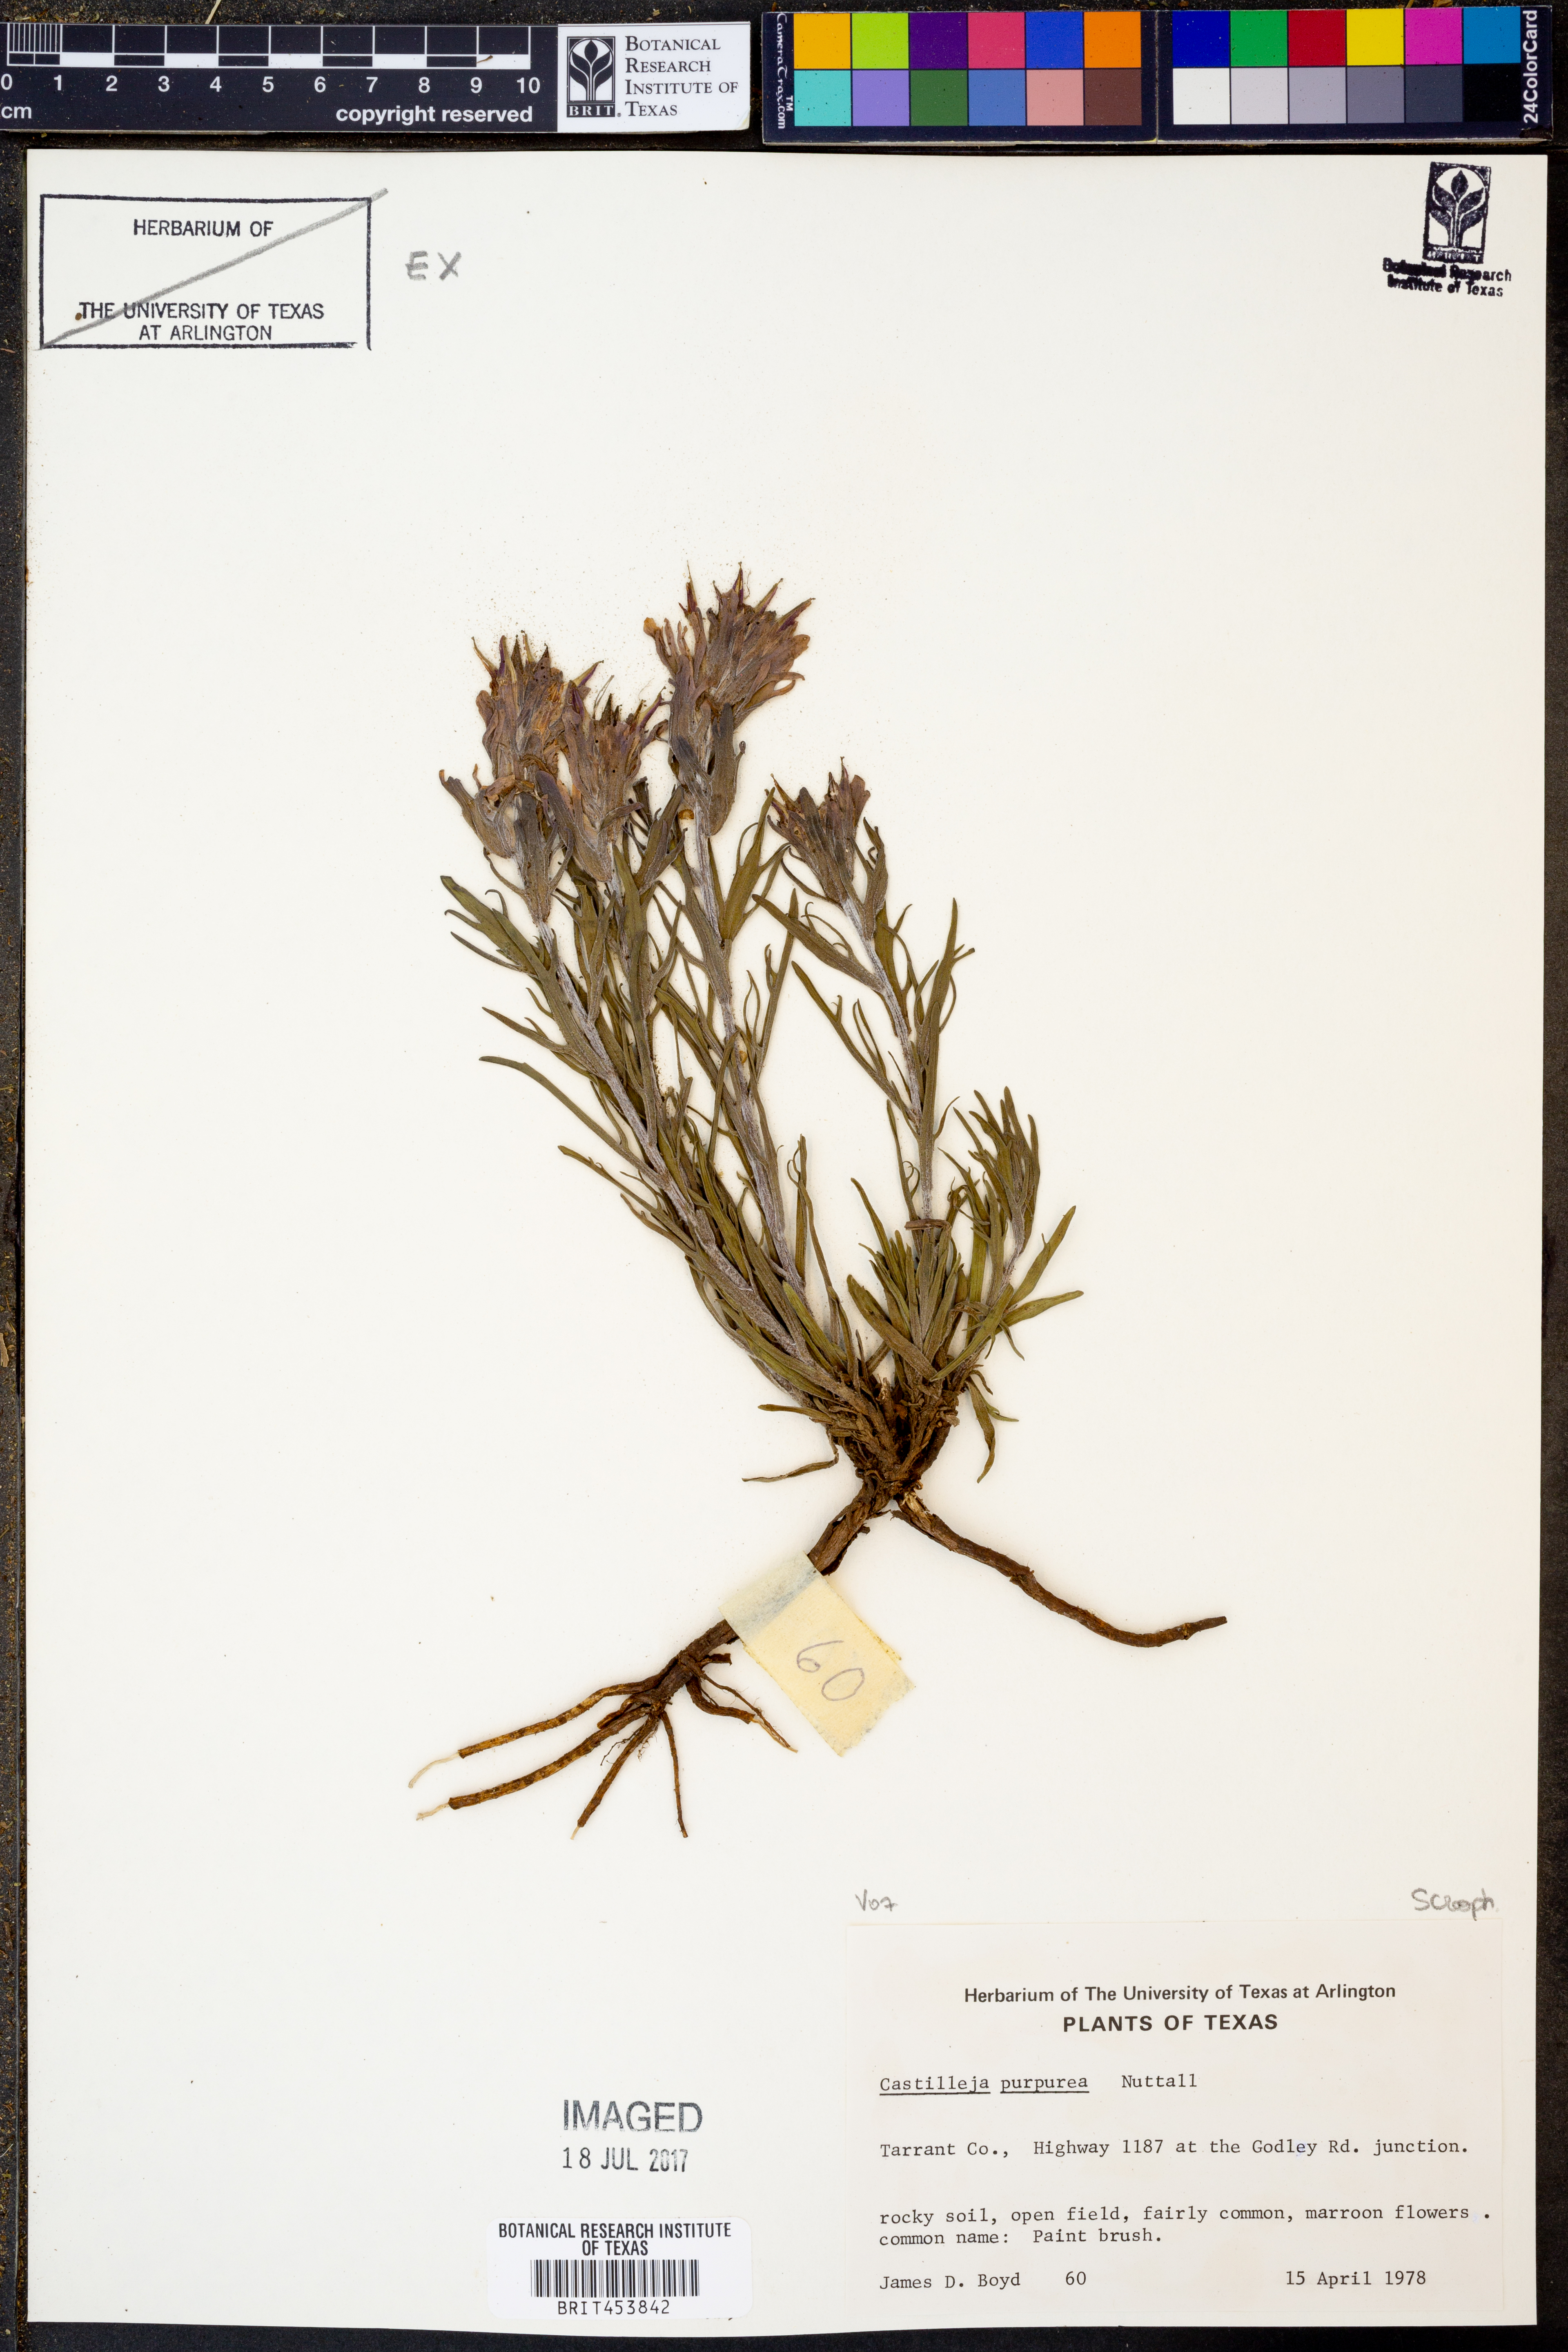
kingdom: Plantae
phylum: Tracheophyta
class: Magnoliopsida
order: Lamiales
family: Orobanchaceae
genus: Castilleja
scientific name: Castilleja purpurea
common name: Plains paintbrush
